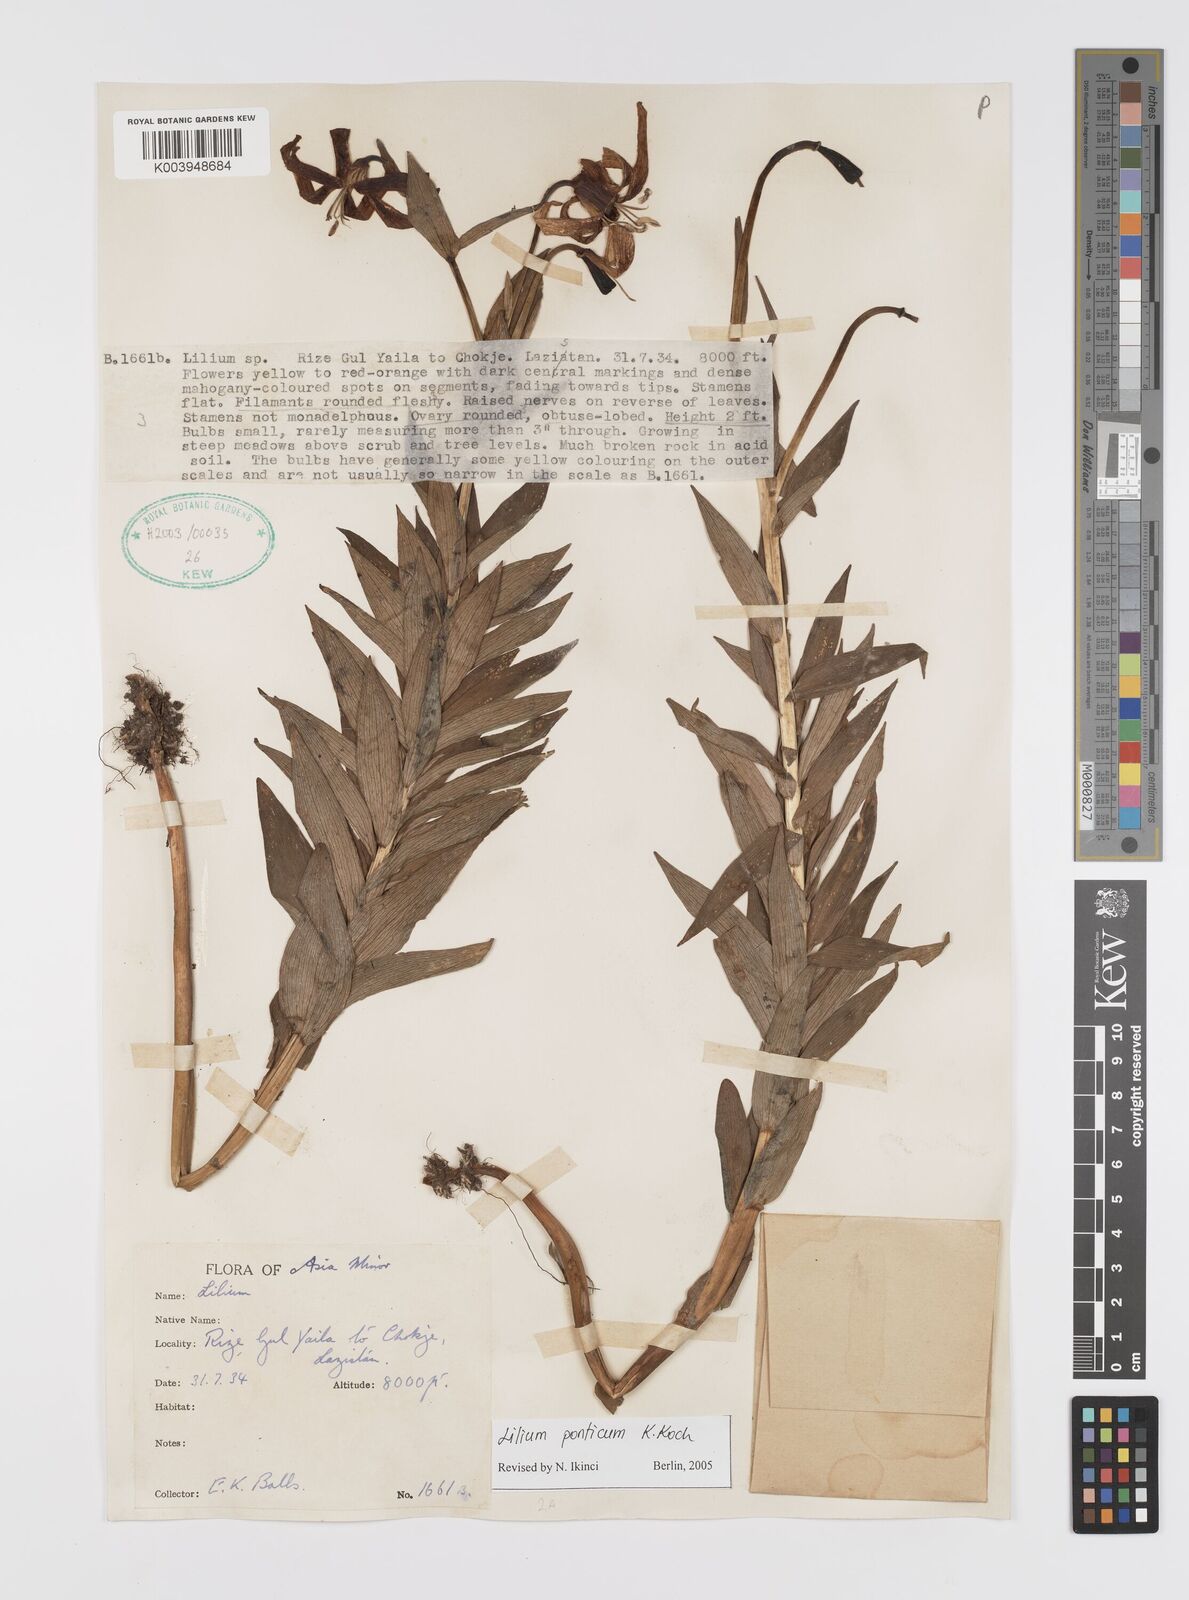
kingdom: Plantae
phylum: Tracheophyta
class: Liliopsida
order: Liliales
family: Liliaceae
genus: Lilium
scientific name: Lilium ponticum
